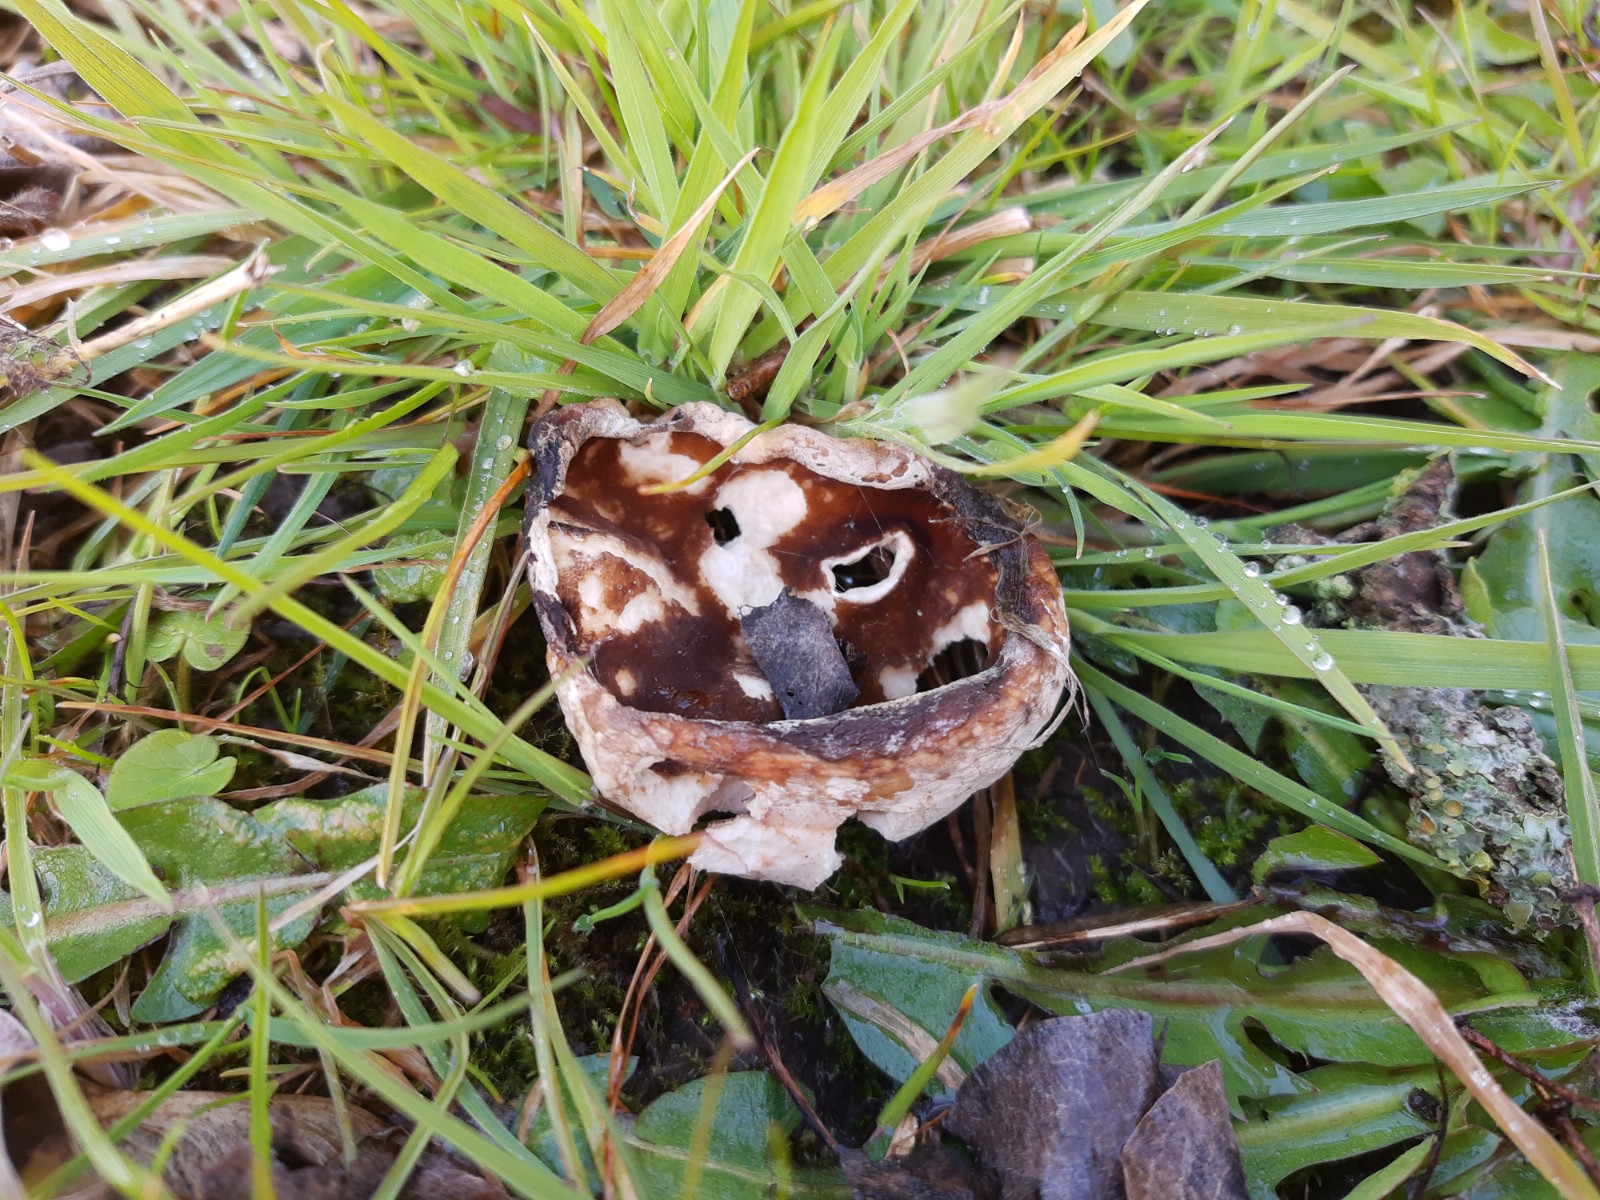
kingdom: Fungi
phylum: Ascomycota
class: Pezizomycetes
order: Pezizales
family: Morchellaceae
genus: Disciotis
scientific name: Disciotis venosa
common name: klor-bægermorkel
